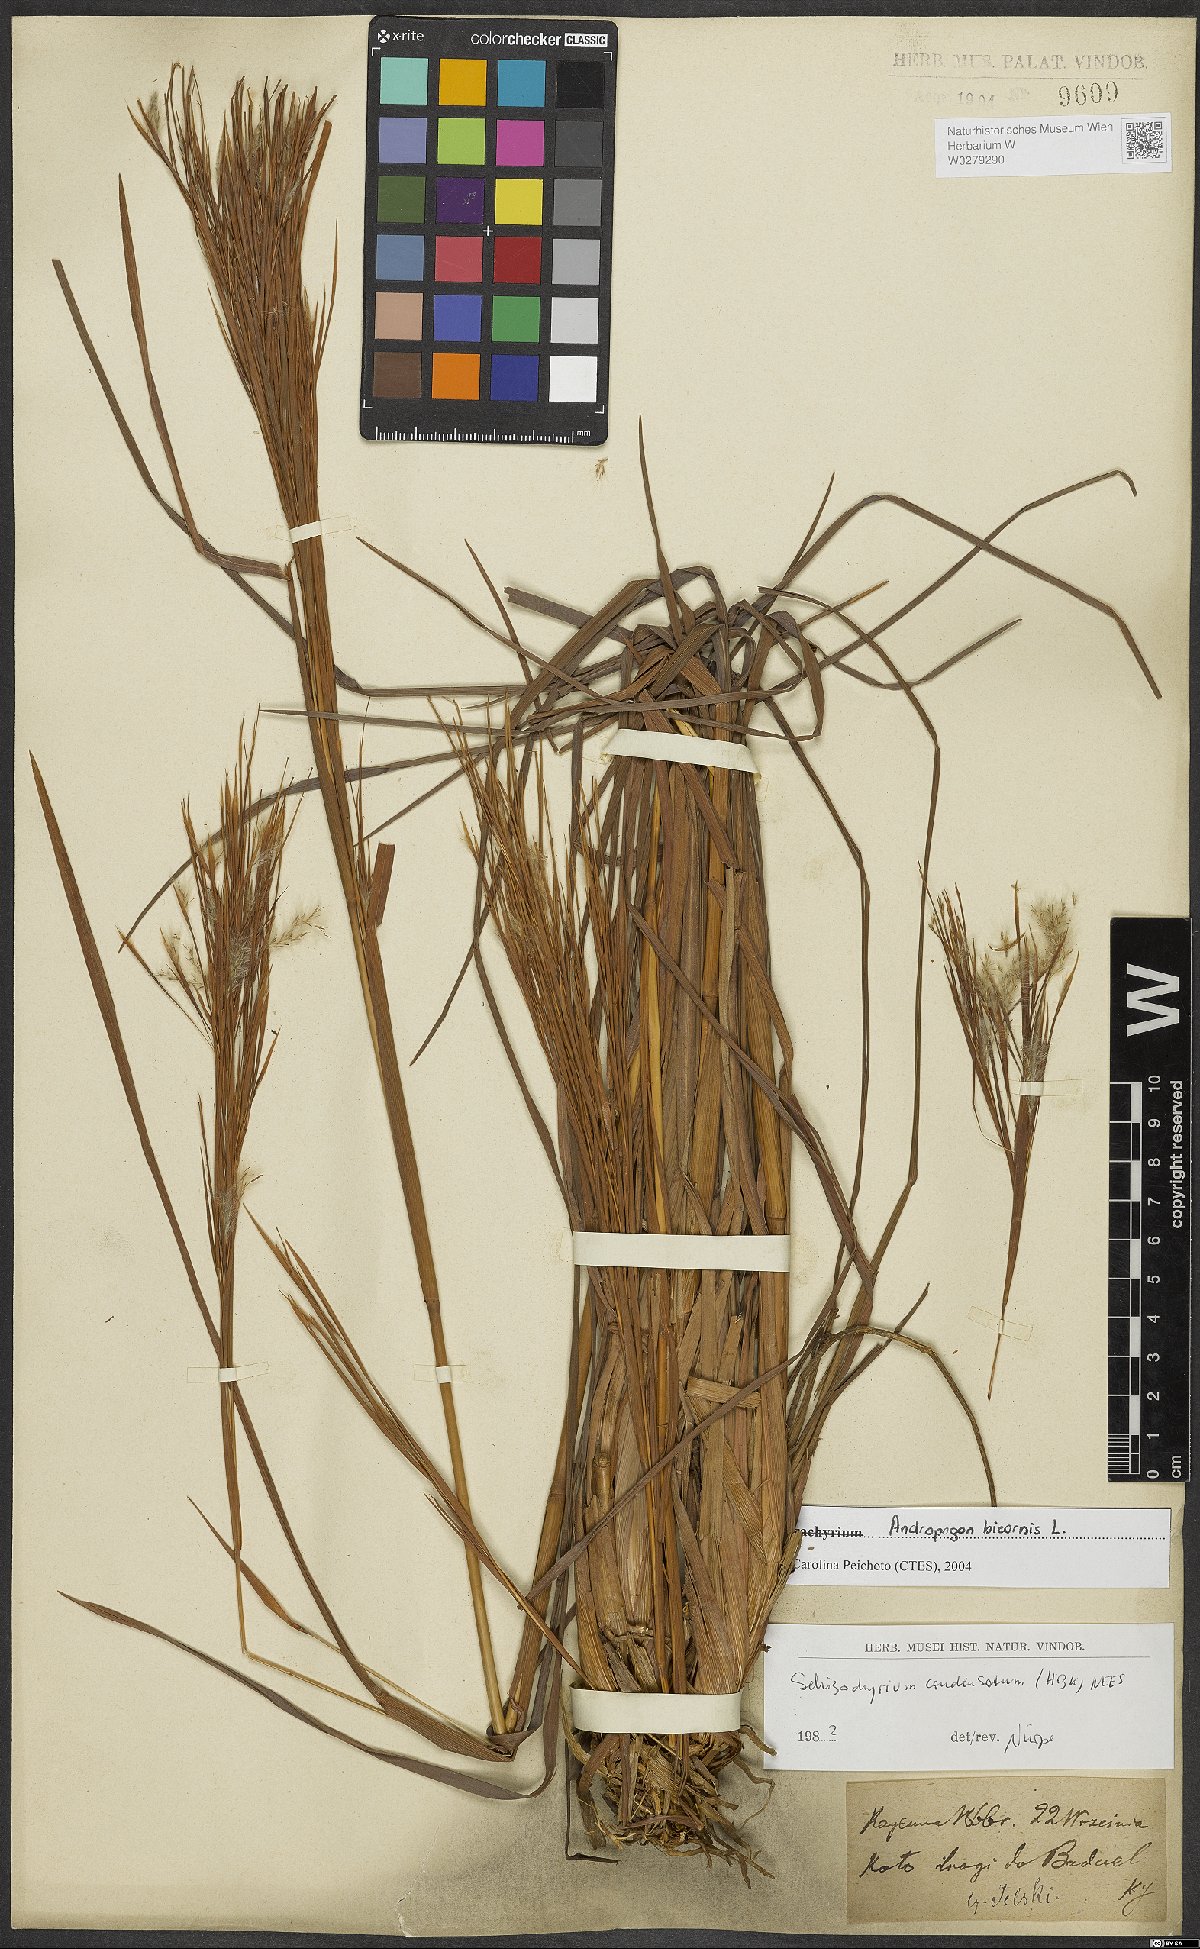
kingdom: Plantae
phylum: Tracheophyta
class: Liliopsida
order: Poales
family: Poaceae
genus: Andropogon
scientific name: Andropogon bicornis
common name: West indian foxtail grass
